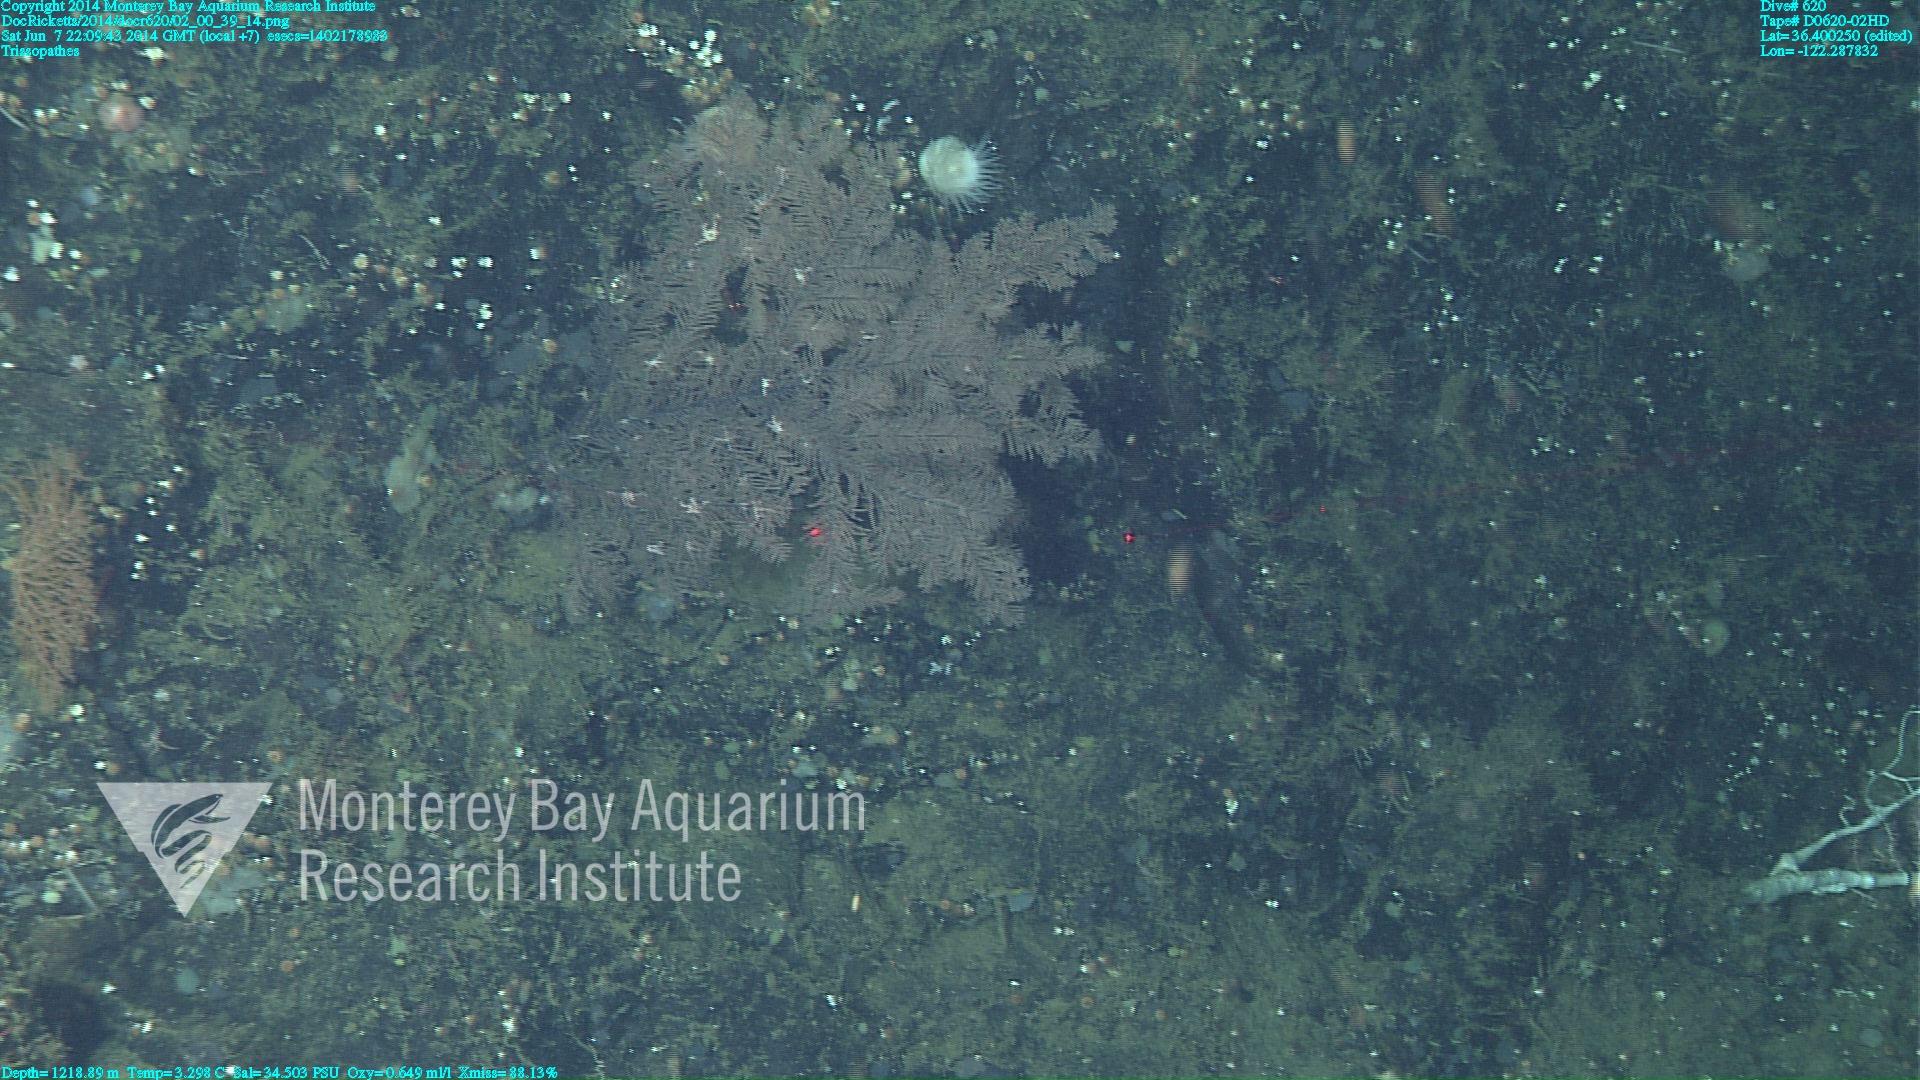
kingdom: Animalia
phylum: Cnidaria
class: Anthozoa
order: Antipatharia
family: Cladopathidae
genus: Trissopathes
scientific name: Trissopathes
